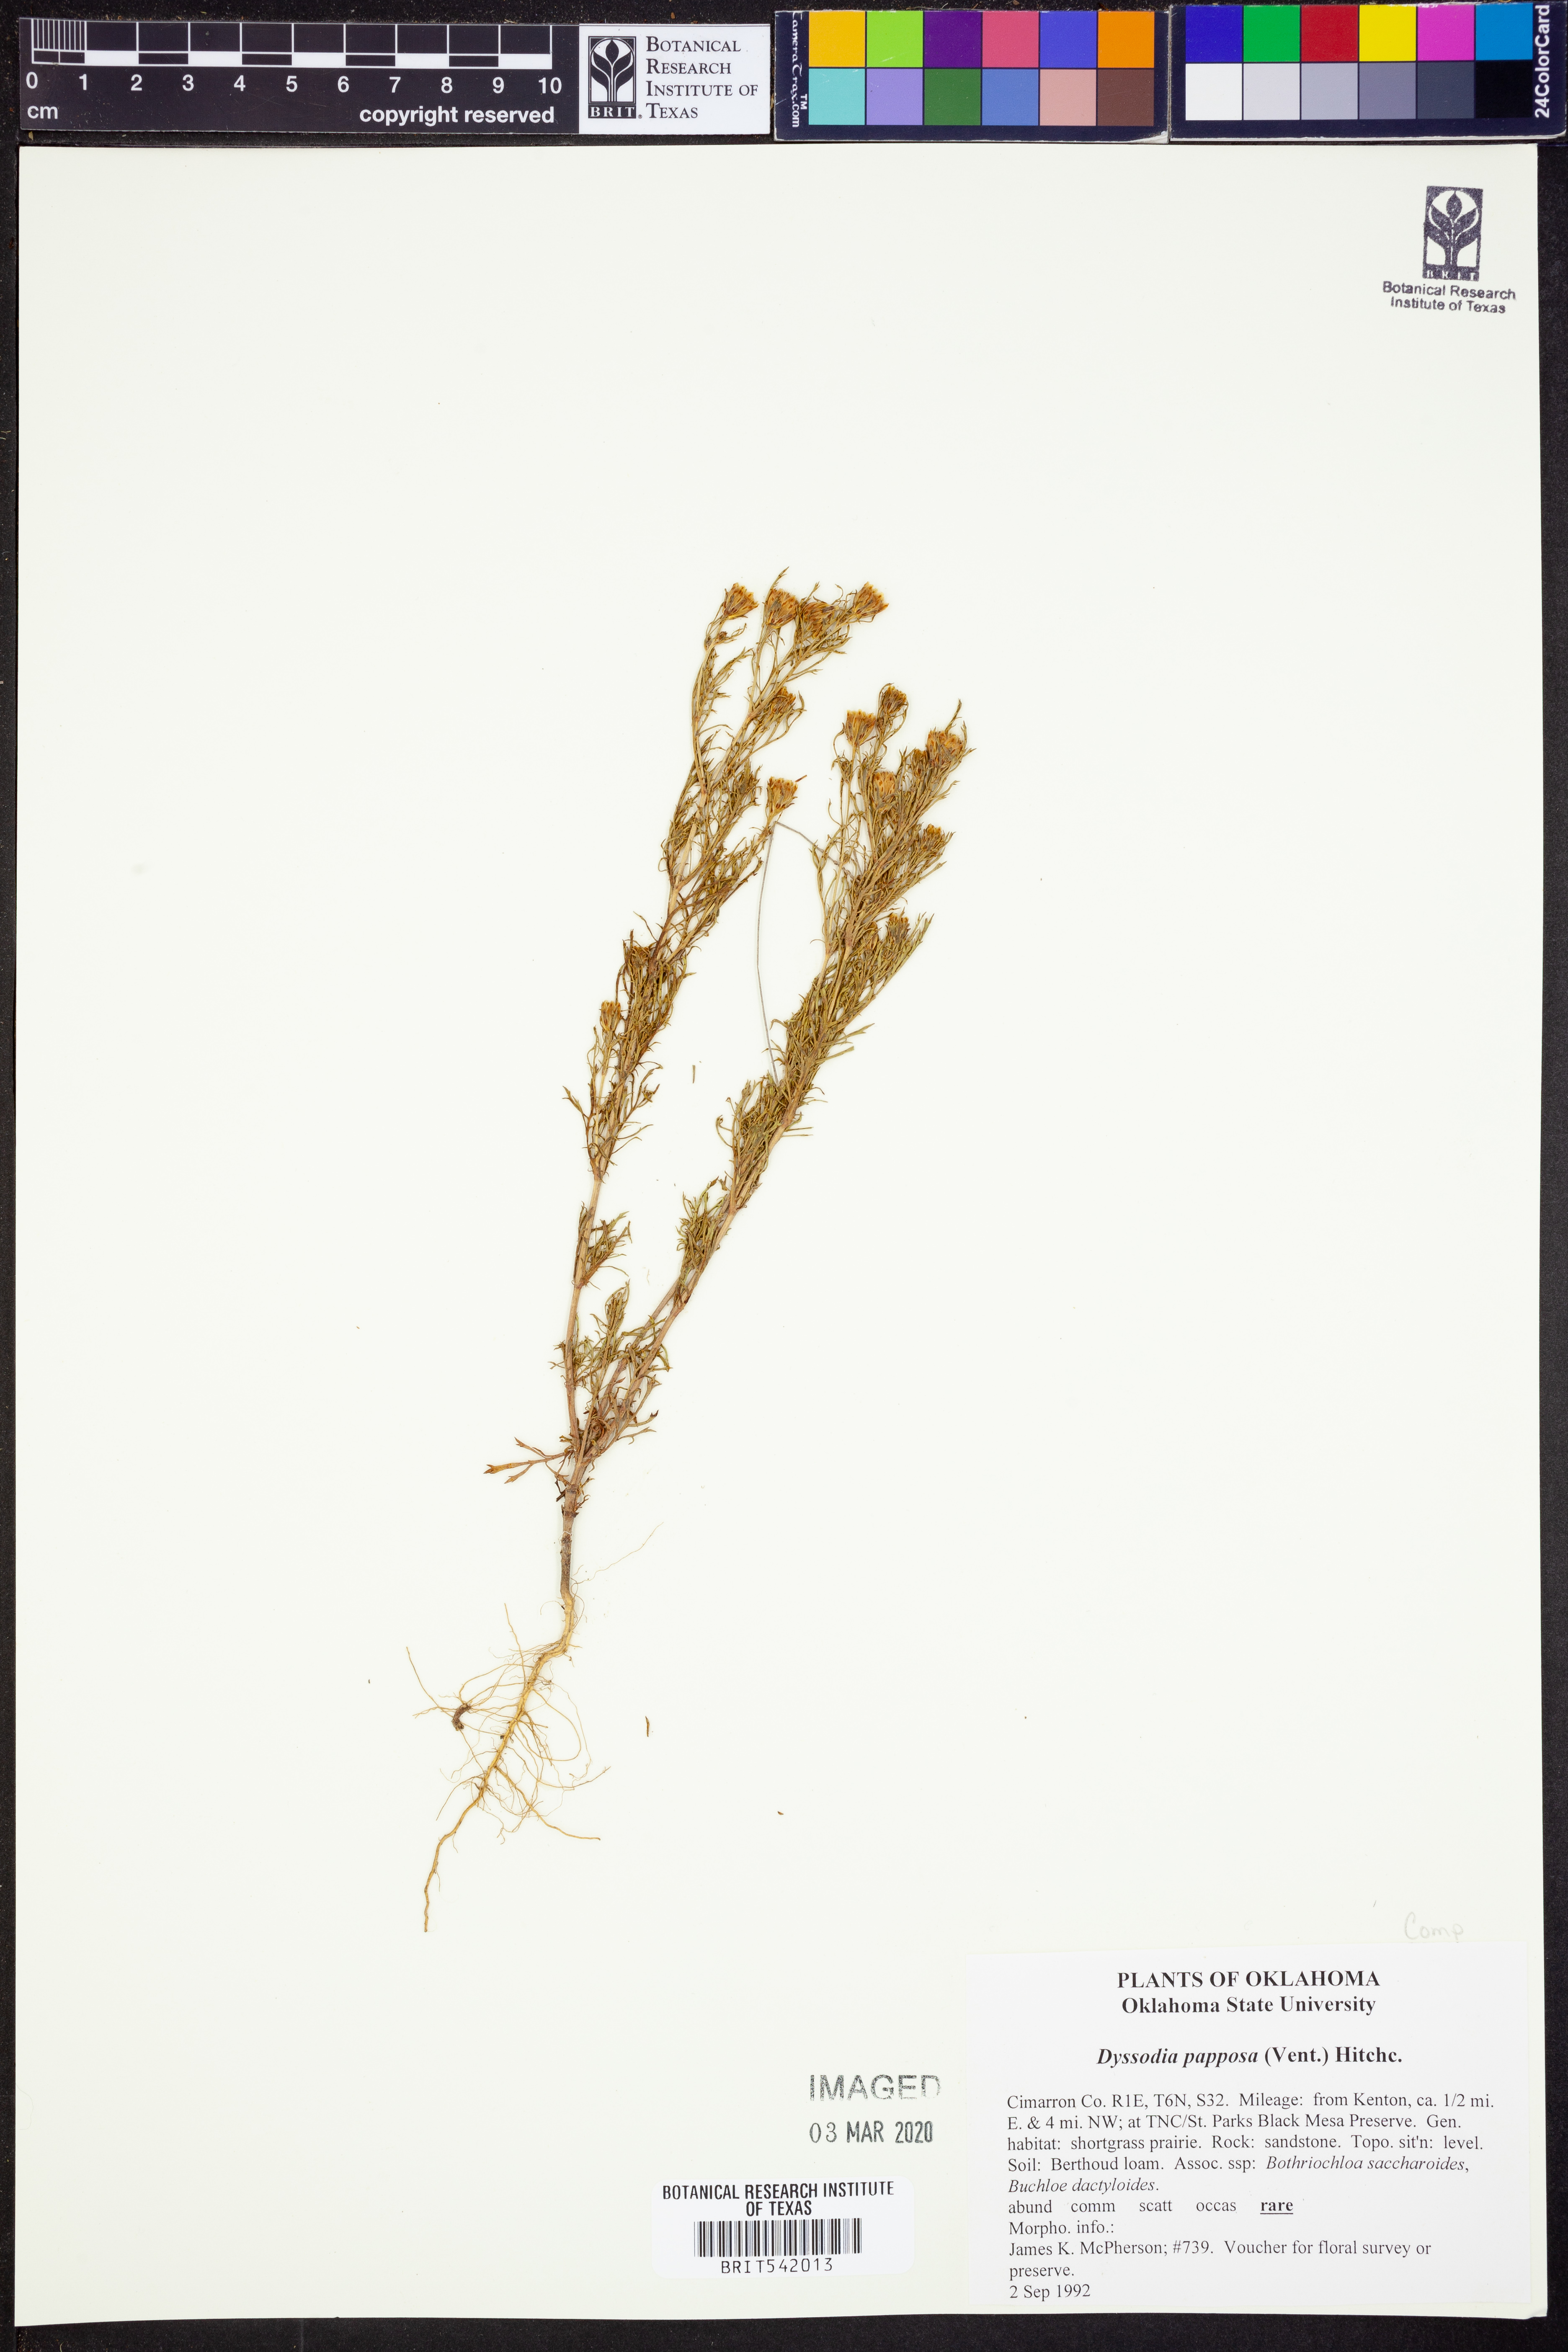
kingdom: Plantae
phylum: Tracheophyta
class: Magnoliopsida
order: Asterales
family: Asteraceae
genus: Dyssodia
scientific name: Dyssodia papposa
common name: Dogweed
